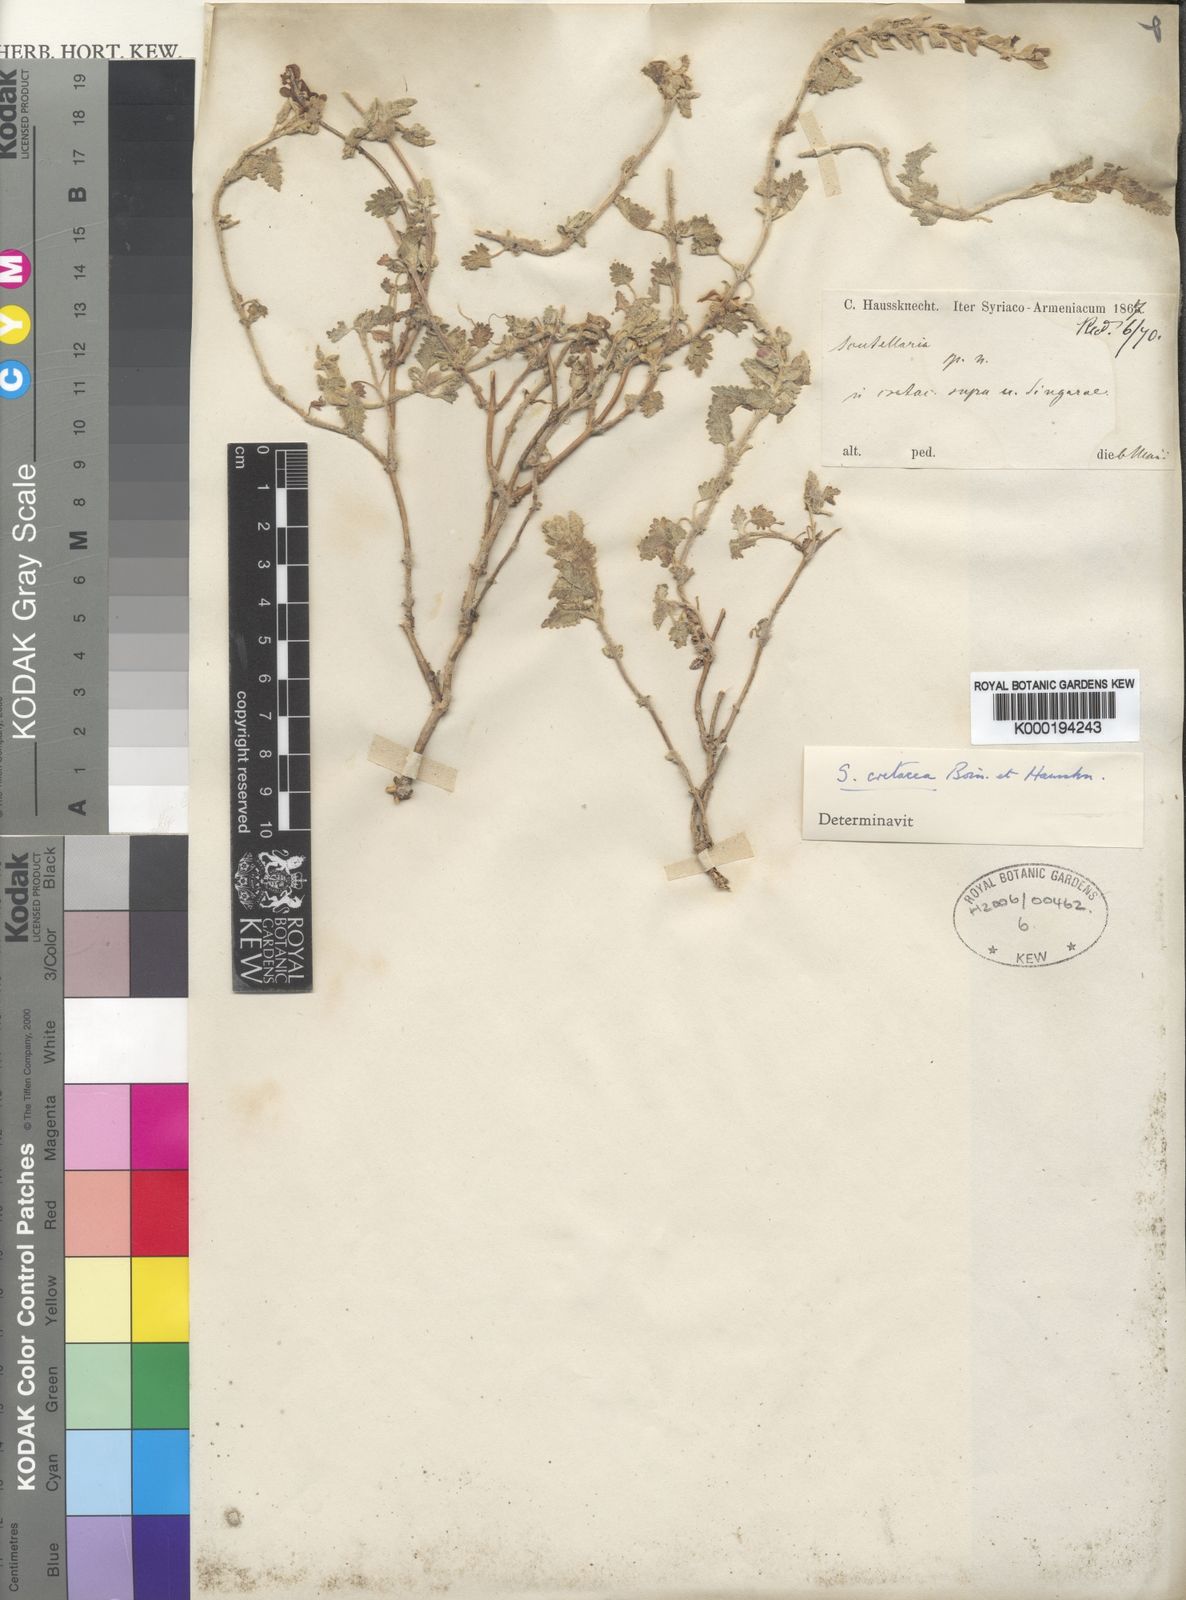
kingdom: Plantae
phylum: Tracheophyta
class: Magnoliopsida
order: Lamiales
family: Lamiaceae
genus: Scutellaria
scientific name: Scutellaria orientalis
